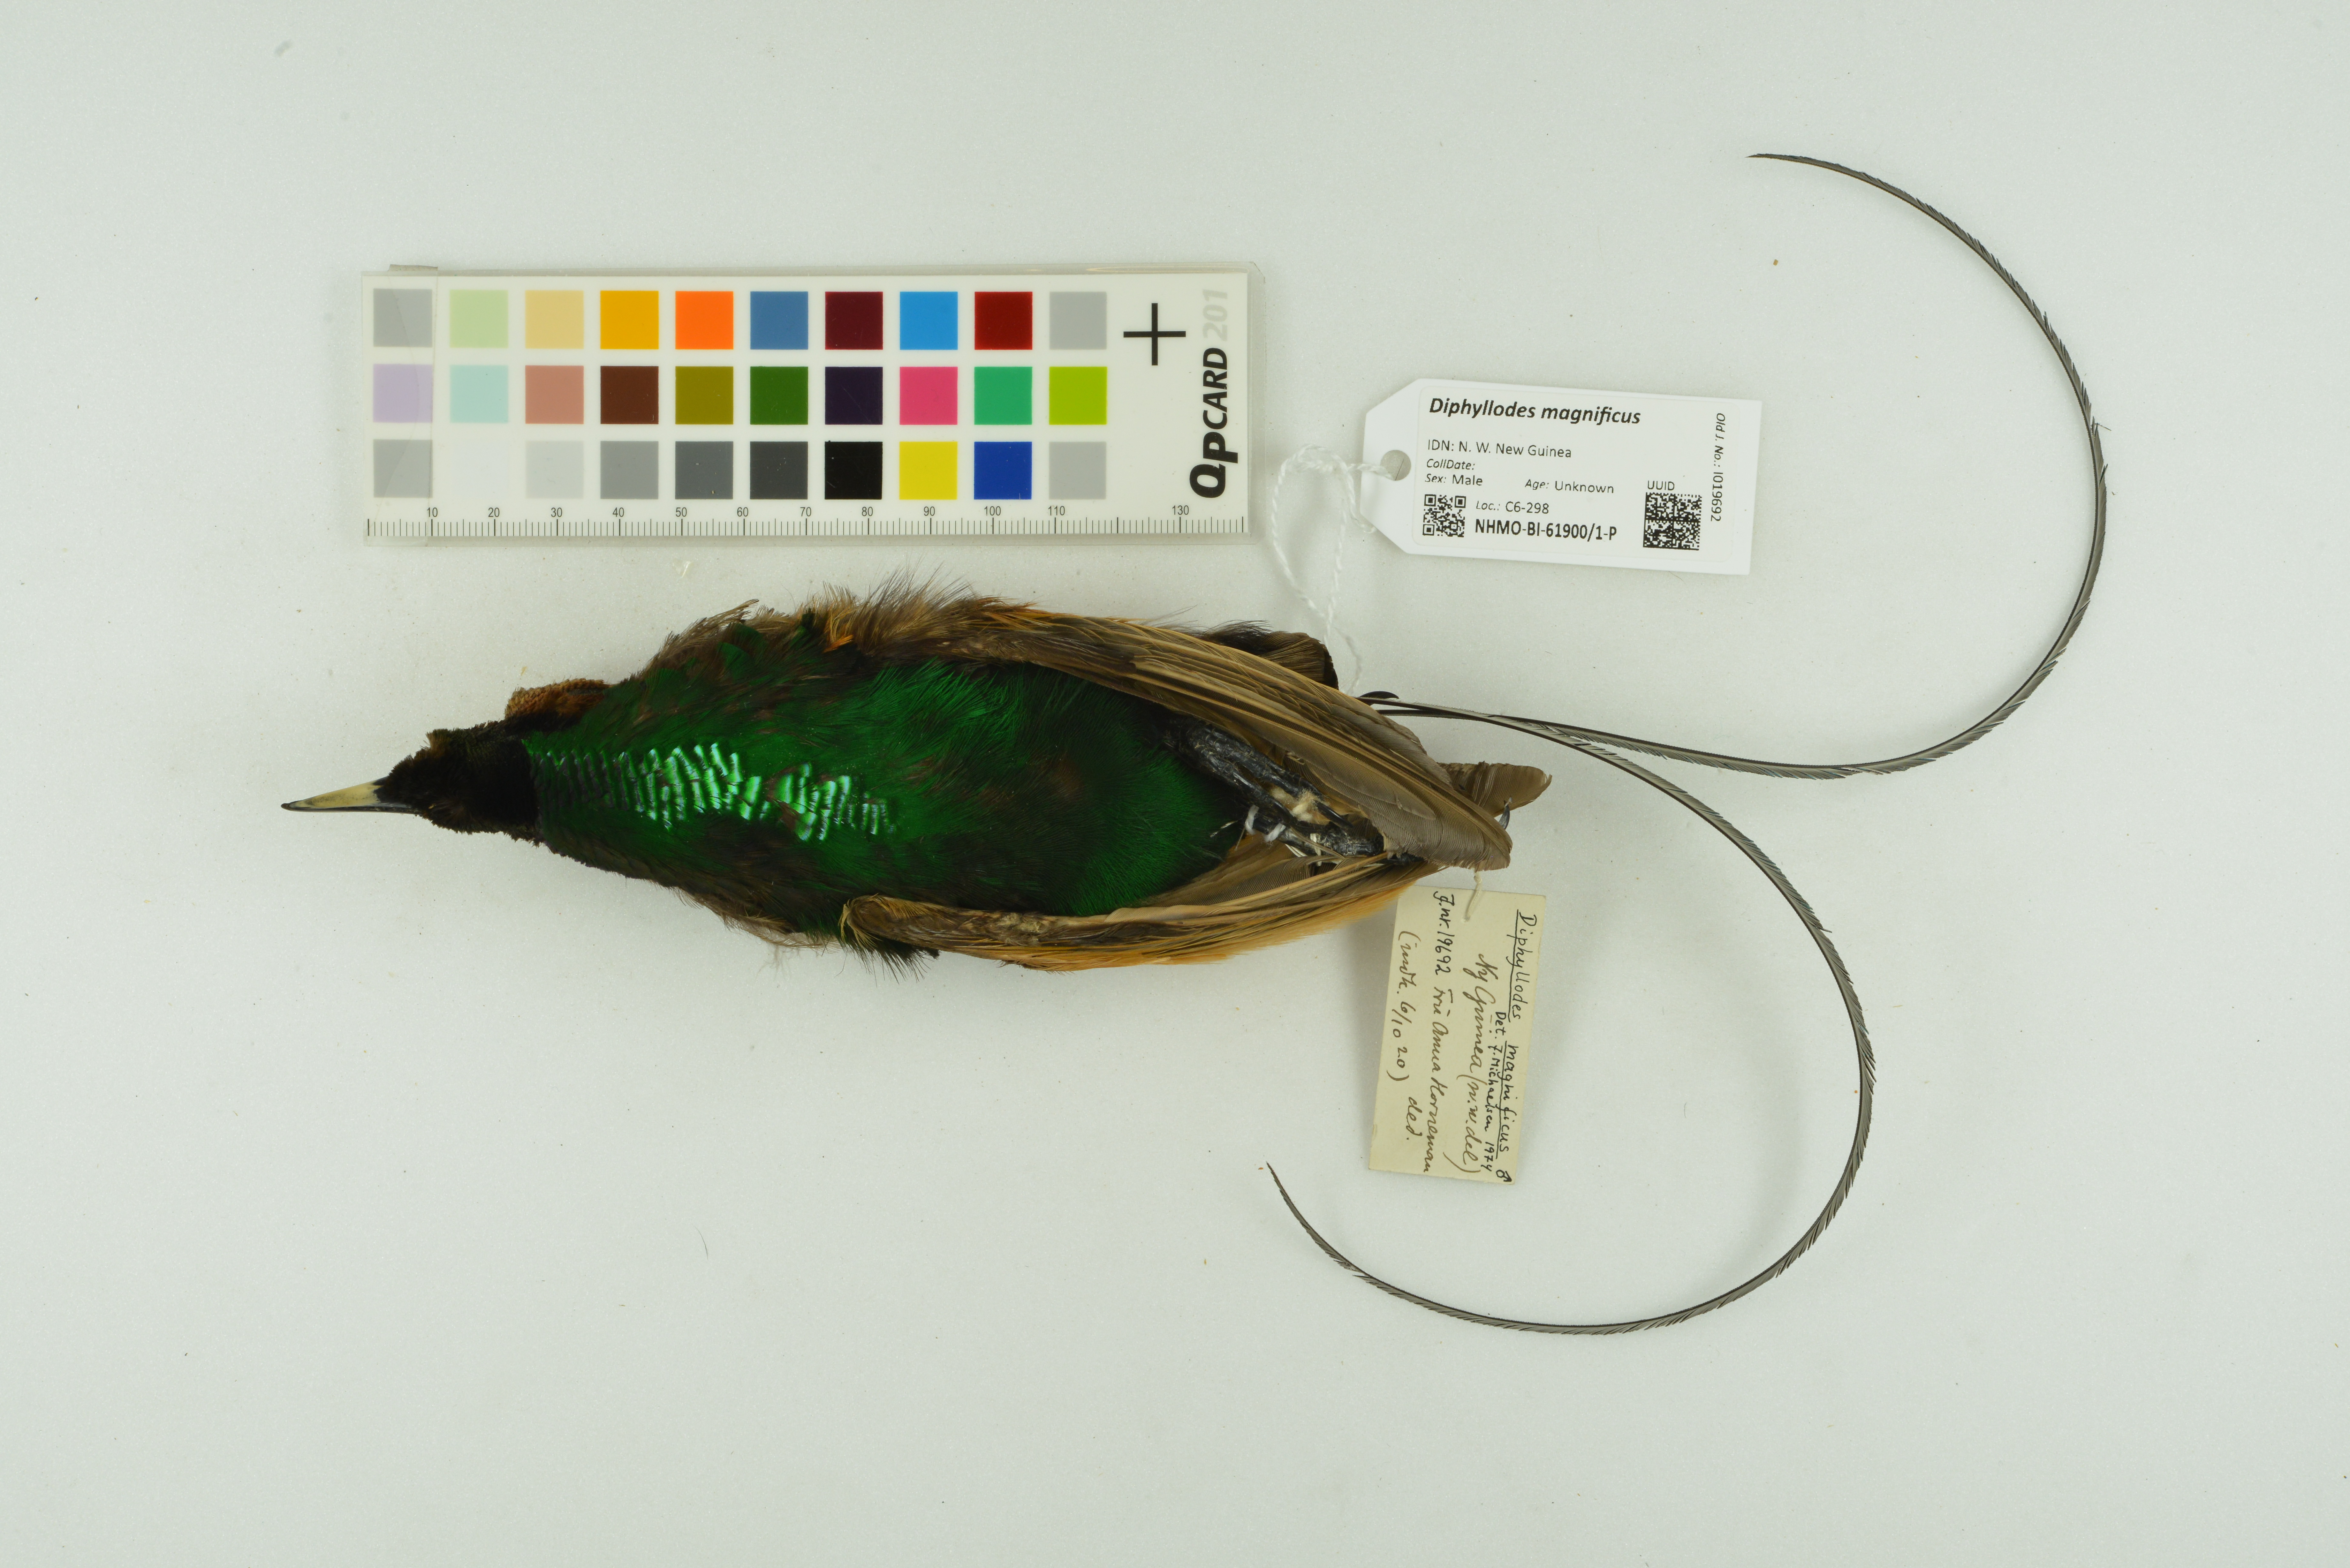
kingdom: Animalia
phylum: Chordata
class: Aves
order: Passeriformes
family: Paradisaeidae
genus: Diphyllodes
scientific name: Diphyllodes magnificus
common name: Magnificent bird-of-paradise
